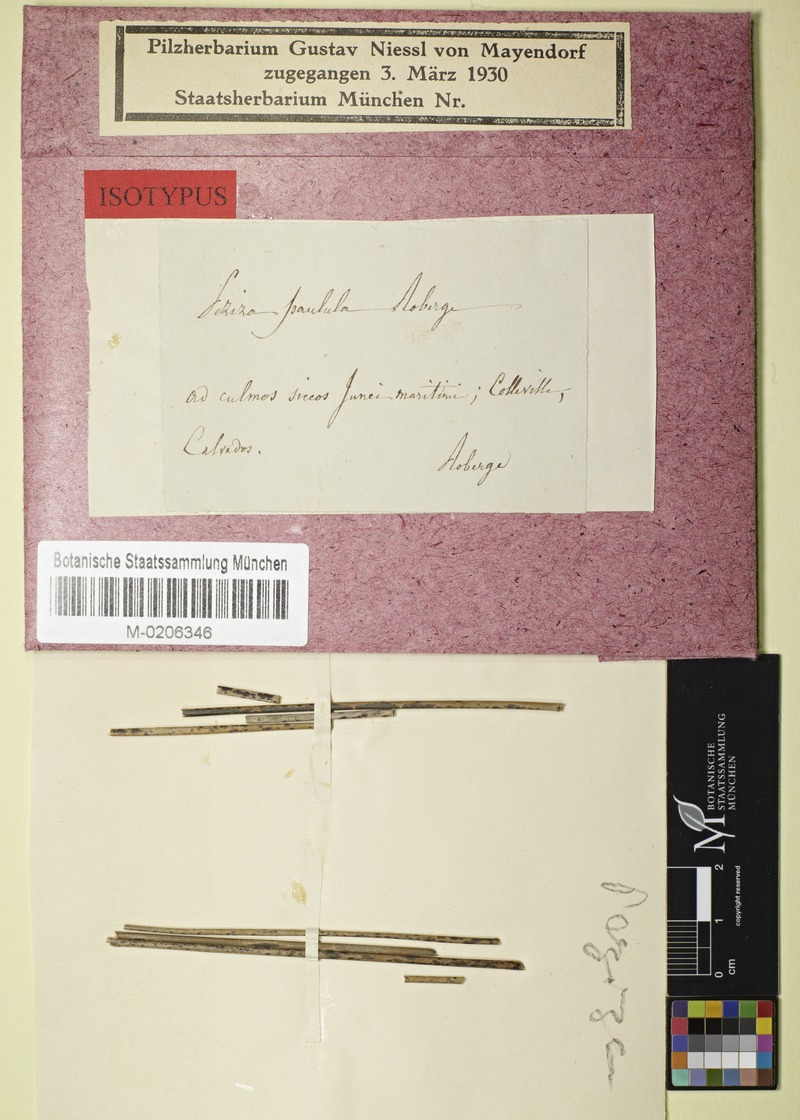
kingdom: Fungi
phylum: Ascomycota
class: Leotiomycetes
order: Helotiales
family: Calloriaceae
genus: Diplonaevia
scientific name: Diplonaevia paulula
